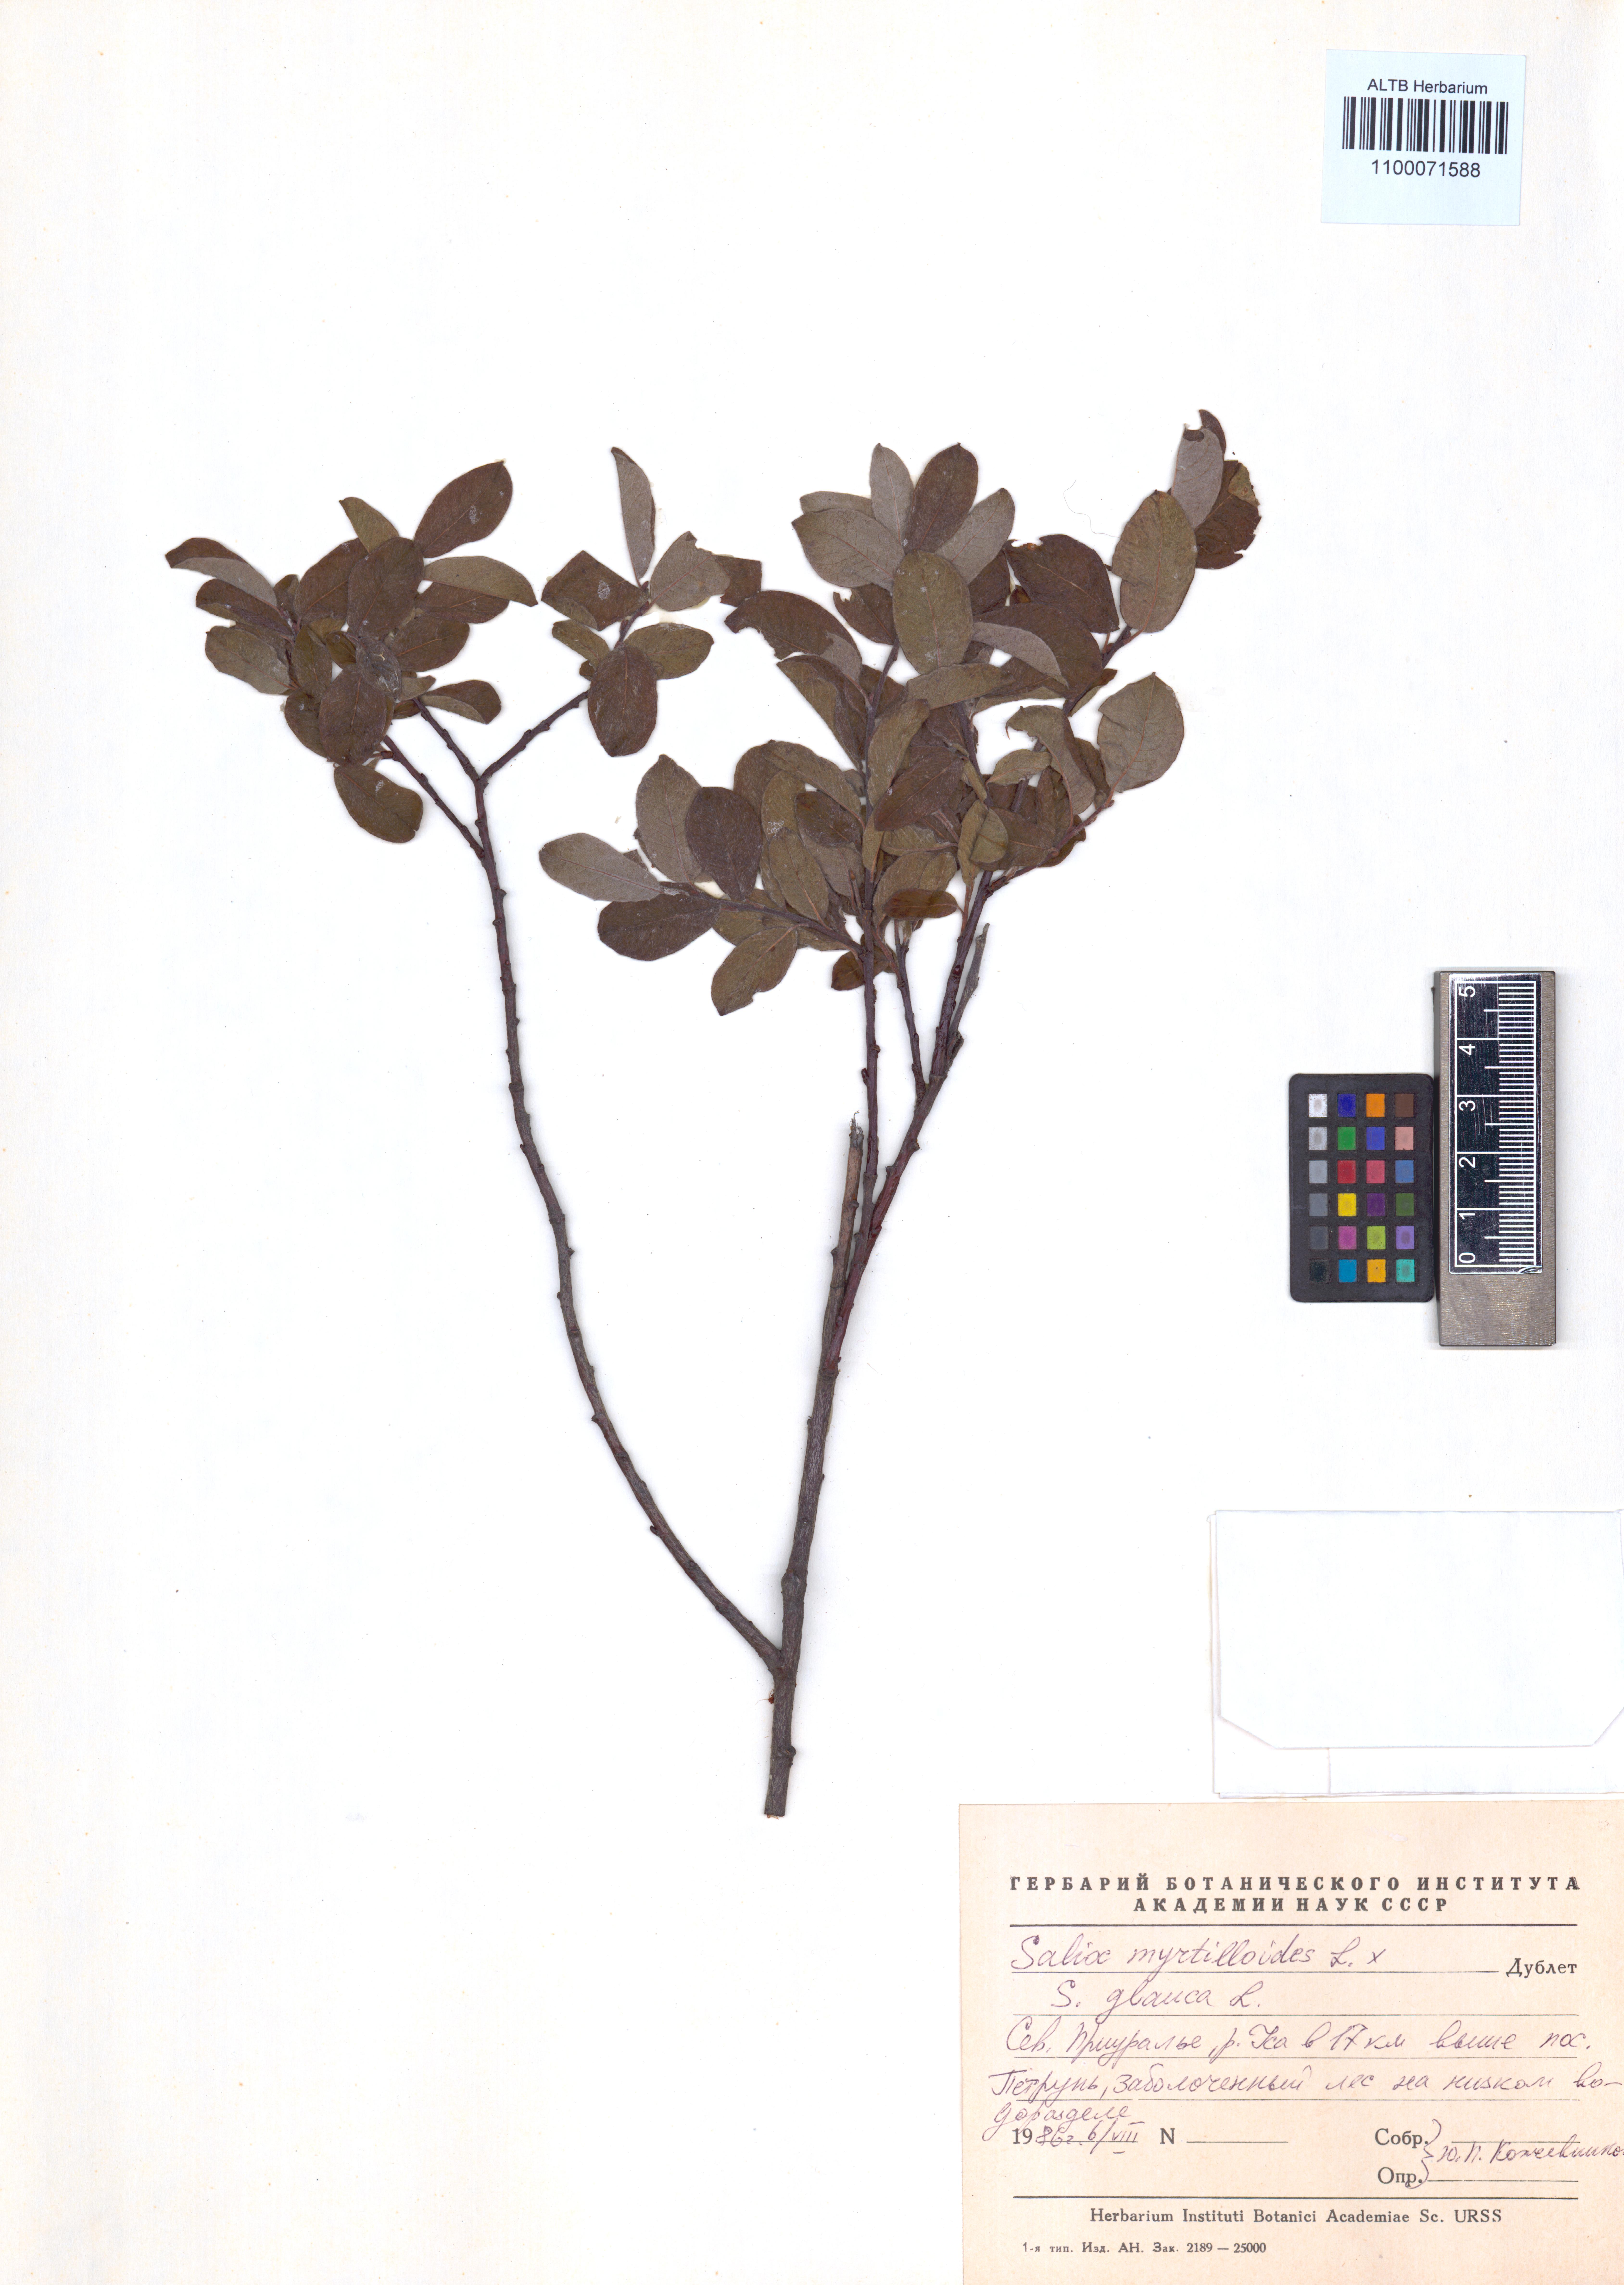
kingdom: Plantae
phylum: Tracheophyta
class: Magnoliopsida
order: Malpighiales
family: Salicaceae
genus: Salix
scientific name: Salix myrtilloides
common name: Myrtle-leaved willow
